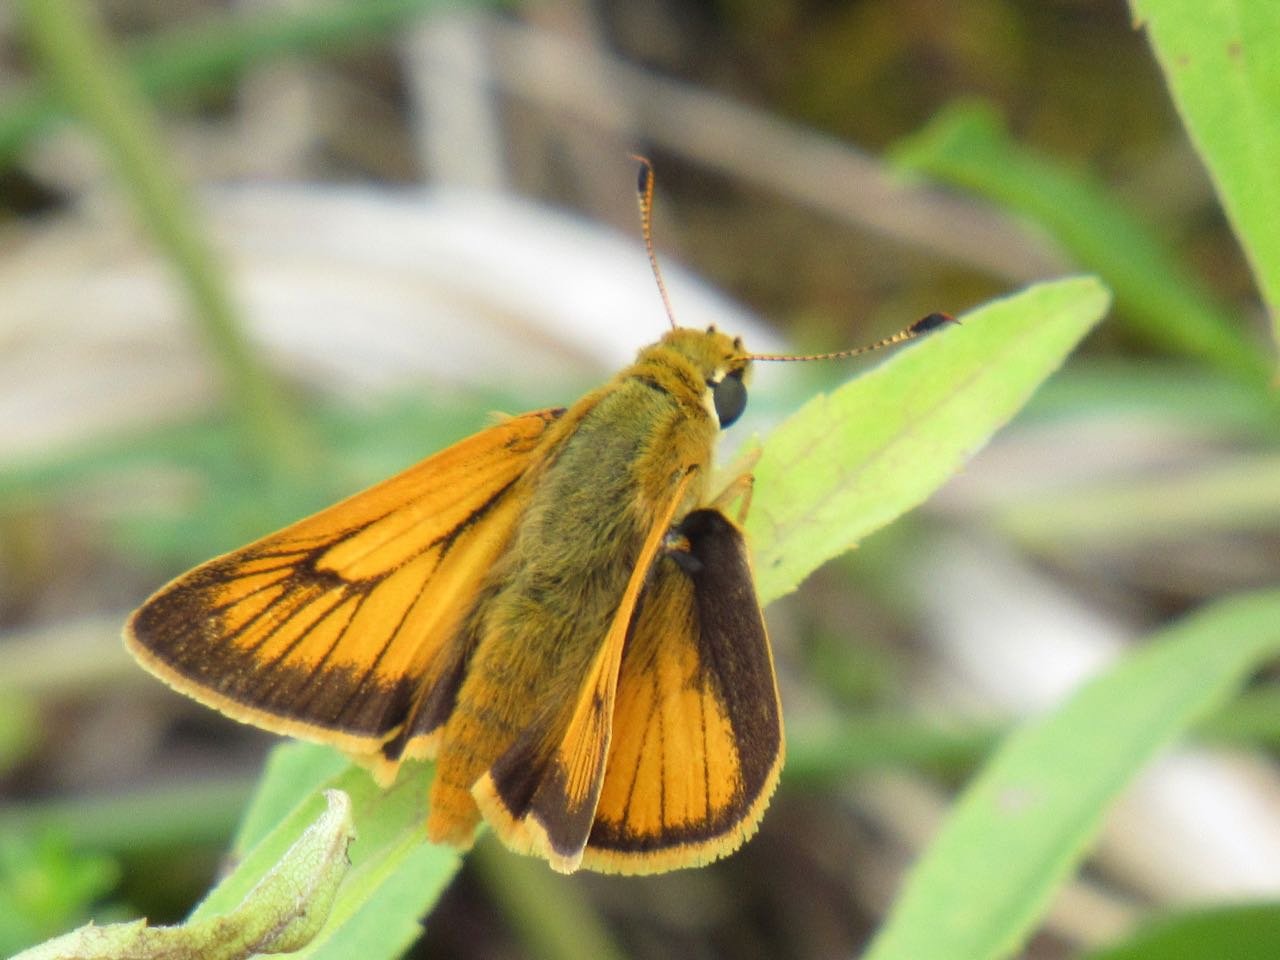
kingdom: Animalia
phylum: Arthropoda
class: Insecta
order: Lepidoptera
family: Hesperiidae
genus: Atrytone
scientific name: Atrytone delaware
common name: Delaware Skipper
